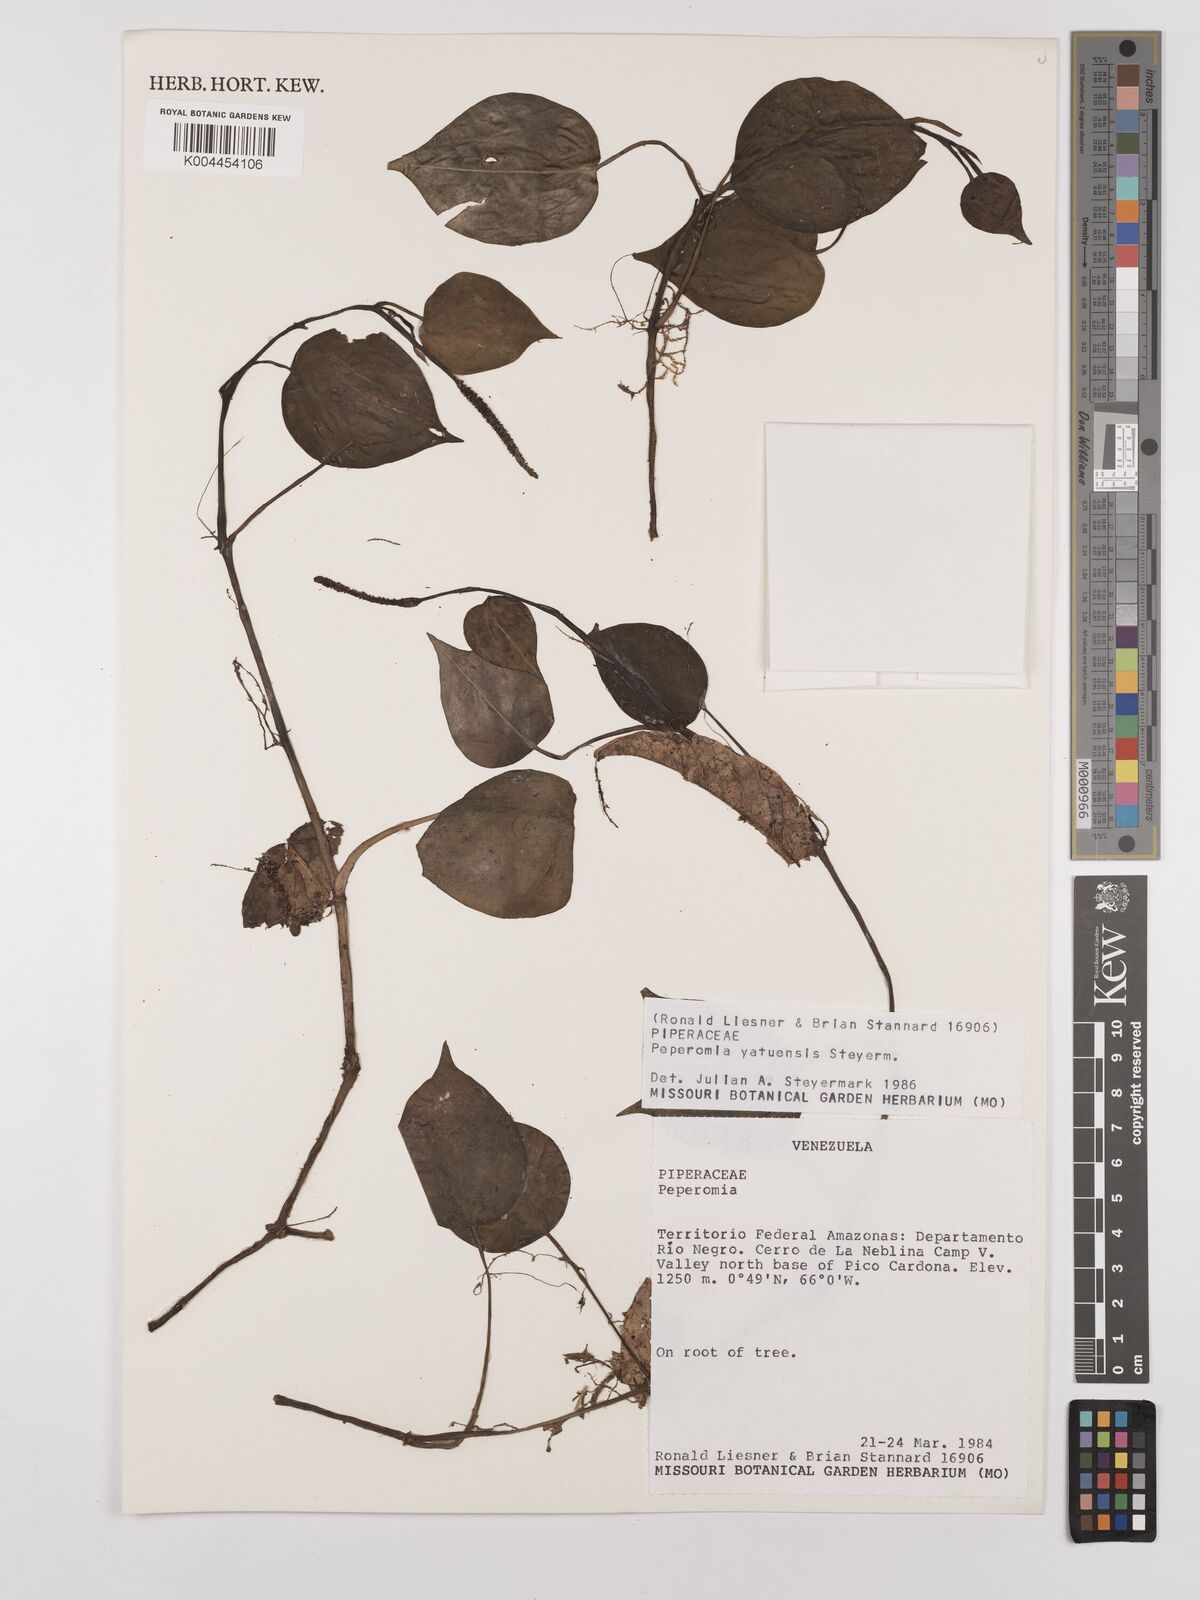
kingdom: Plantae
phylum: Tracheophyta
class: Magnoliopsida
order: Piperales
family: Piperaceae
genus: Peperomia
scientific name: Peperomia yatuensis
